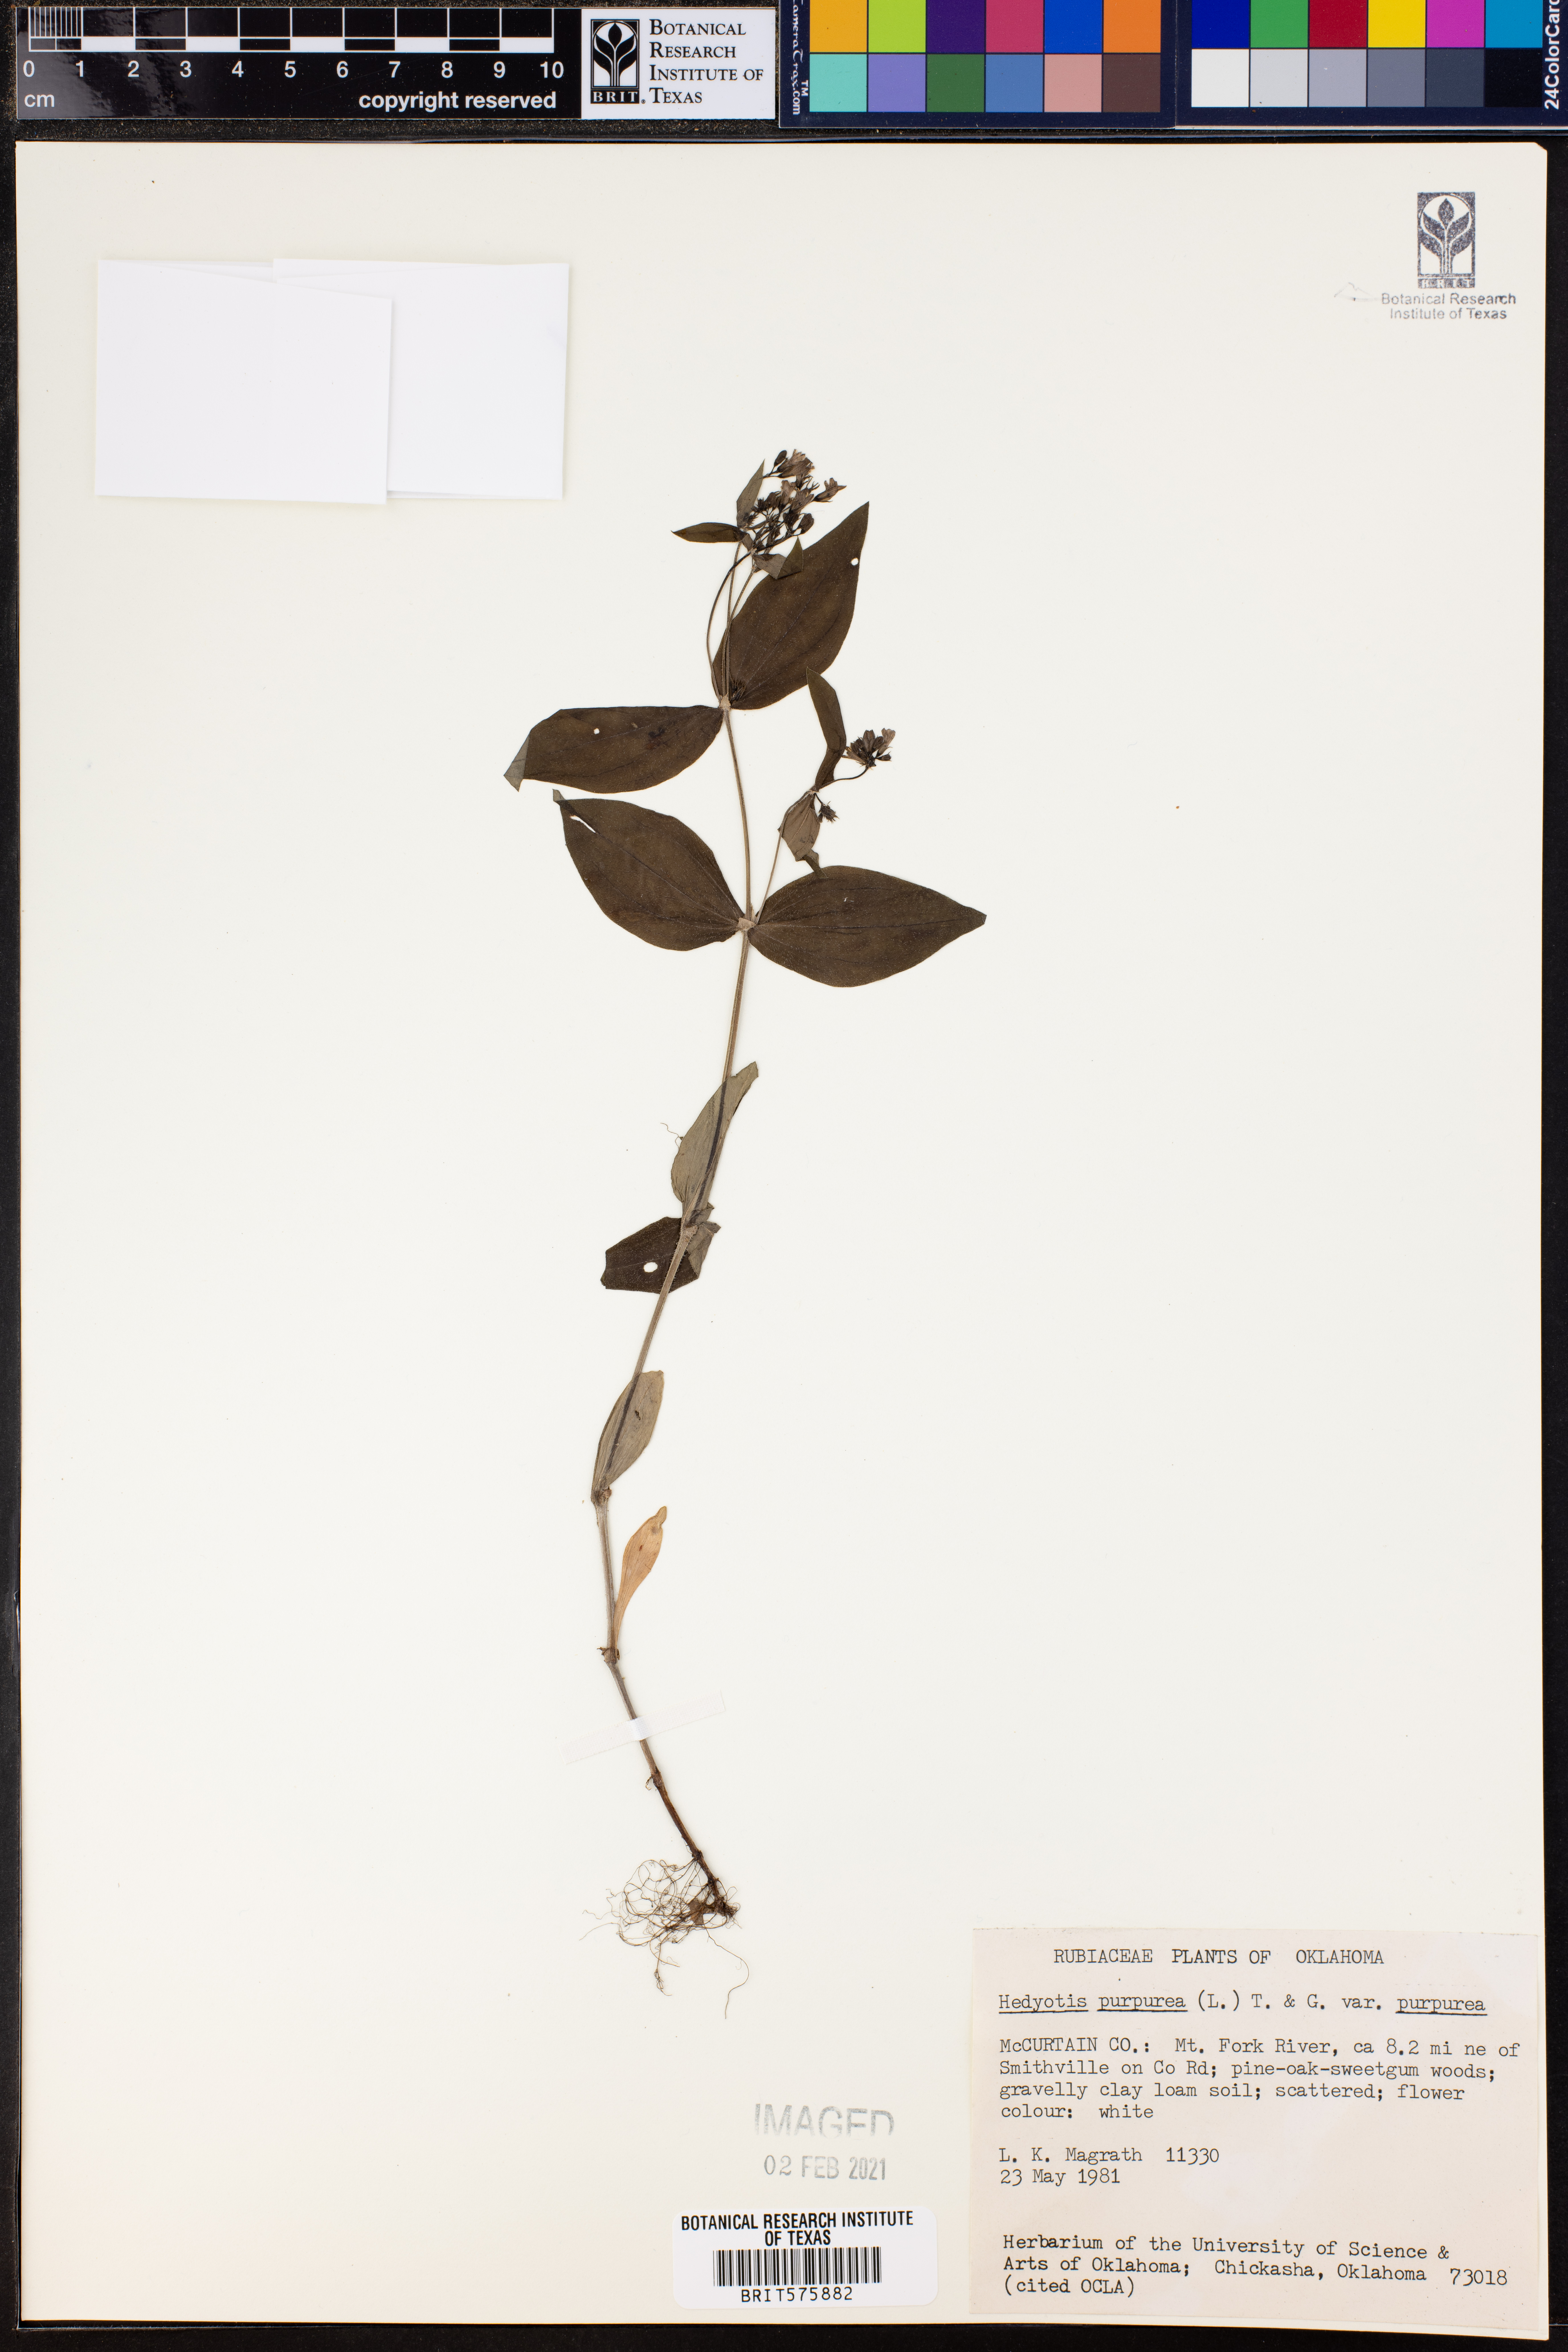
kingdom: Plantae
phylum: Tracheophyta
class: Magnoliopsida
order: Gentianales
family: Rubiaceae
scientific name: Rubiaceae
